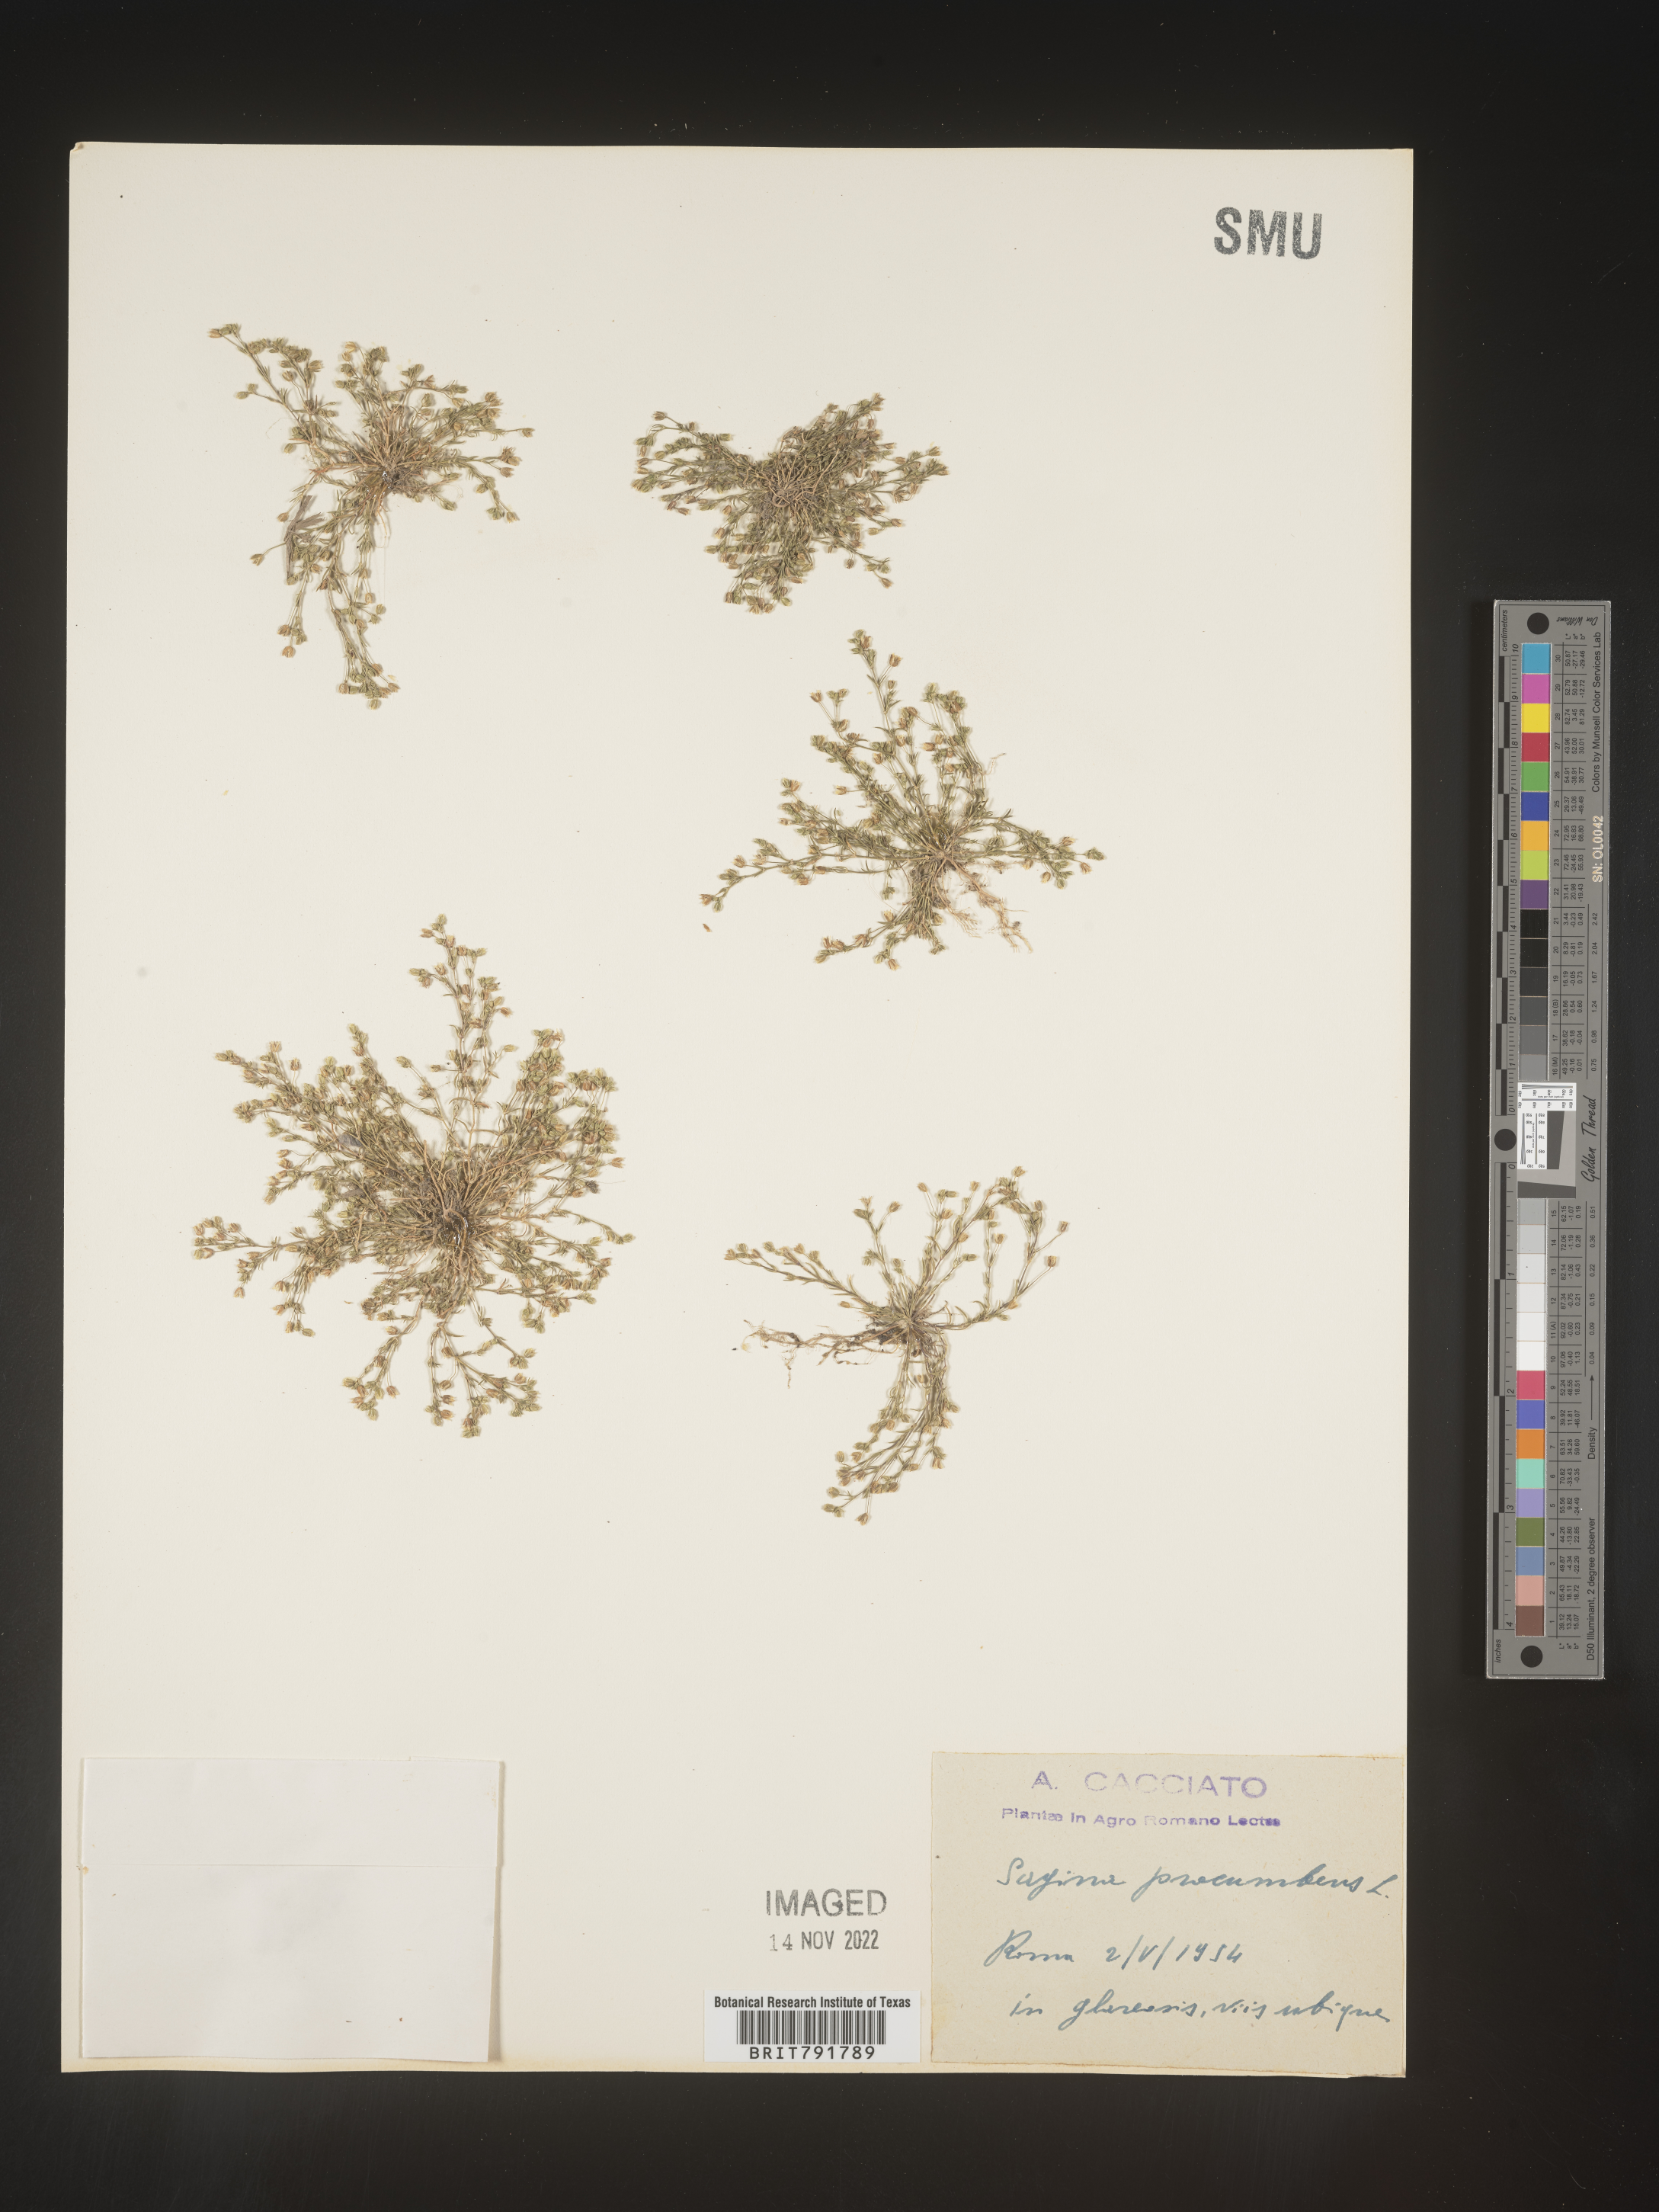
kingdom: Plantae
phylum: Tracheophyta
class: Magnoliopsida
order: Caryophyllales
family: Caryophyllaceae
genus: Sagina
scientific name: Sagina
